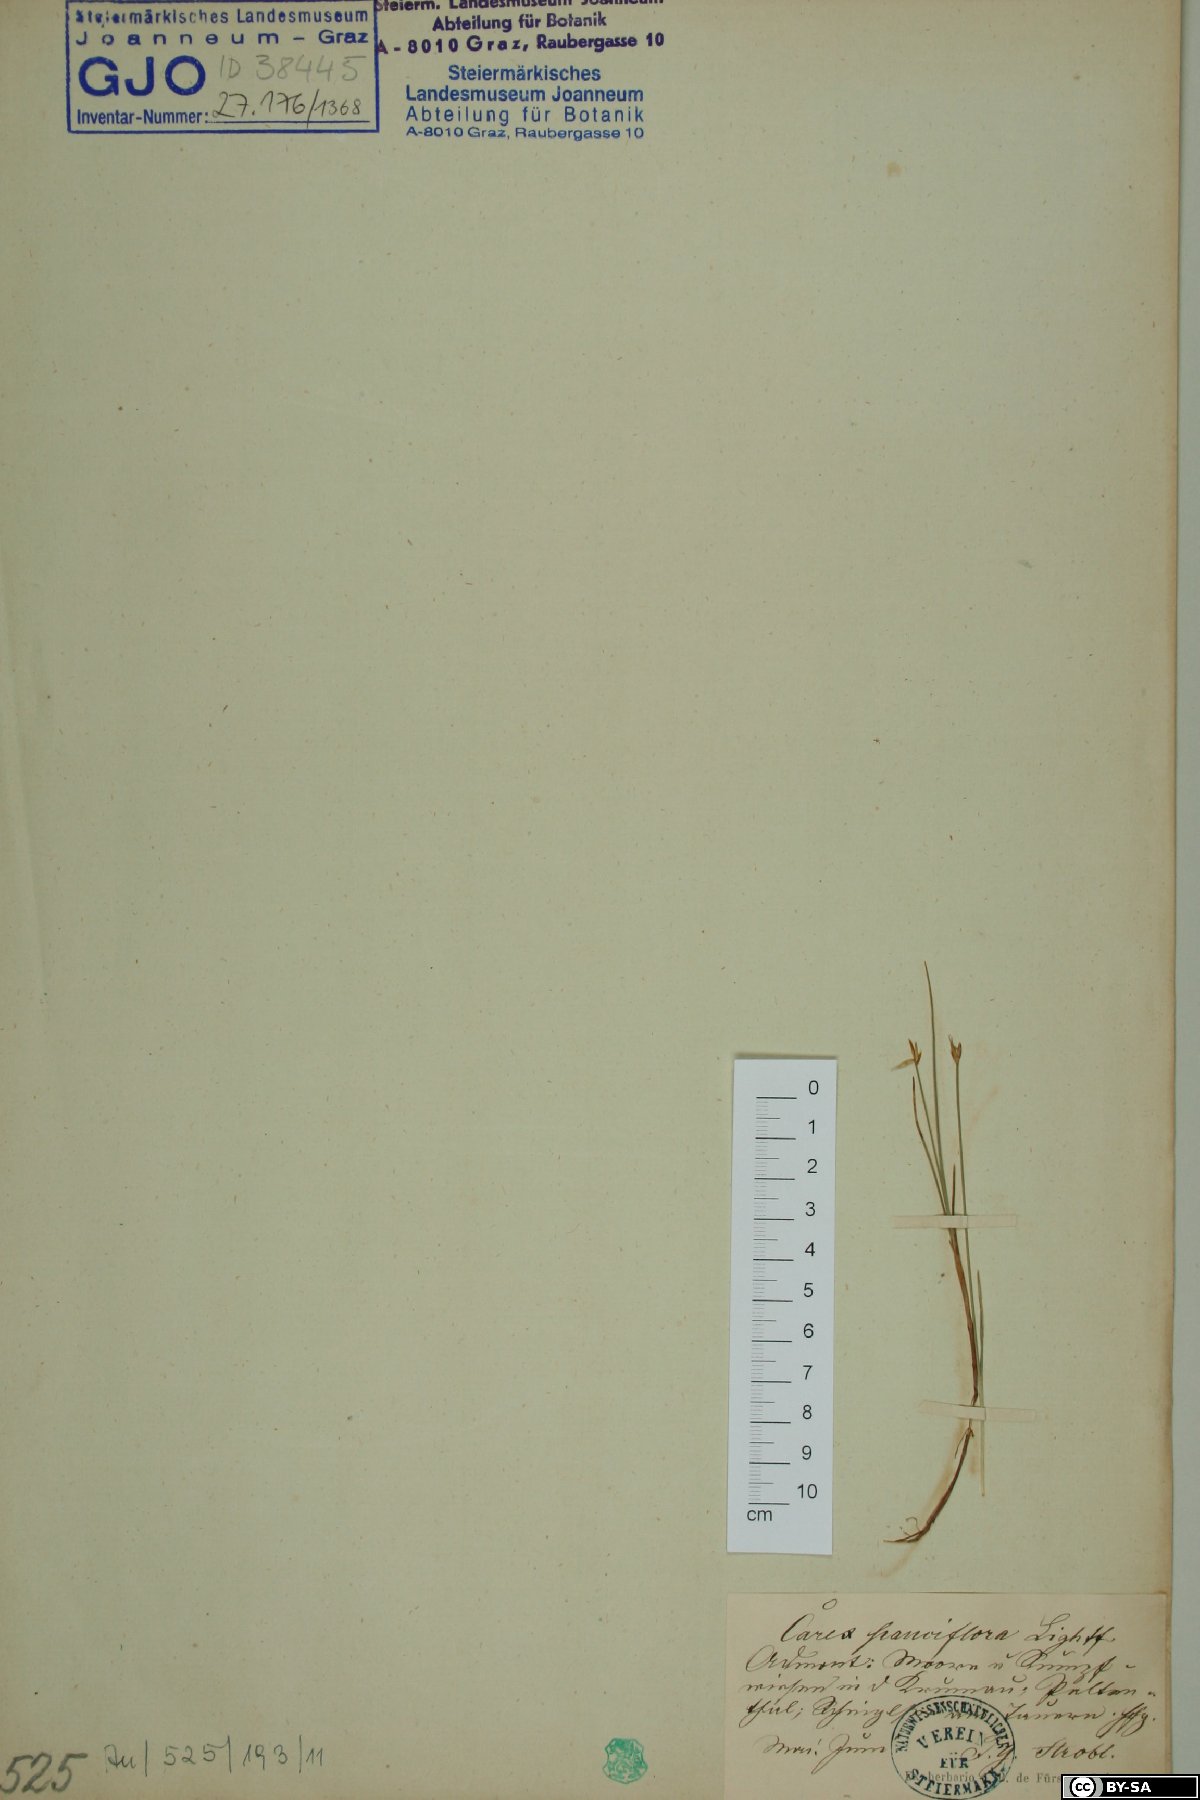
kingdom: Plantae
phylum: Tracheophyta
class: Liliopsida
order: Poales
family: Cyperaceae
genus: Carex
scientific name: Carex pauciflora
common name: Few-flowered sedge
